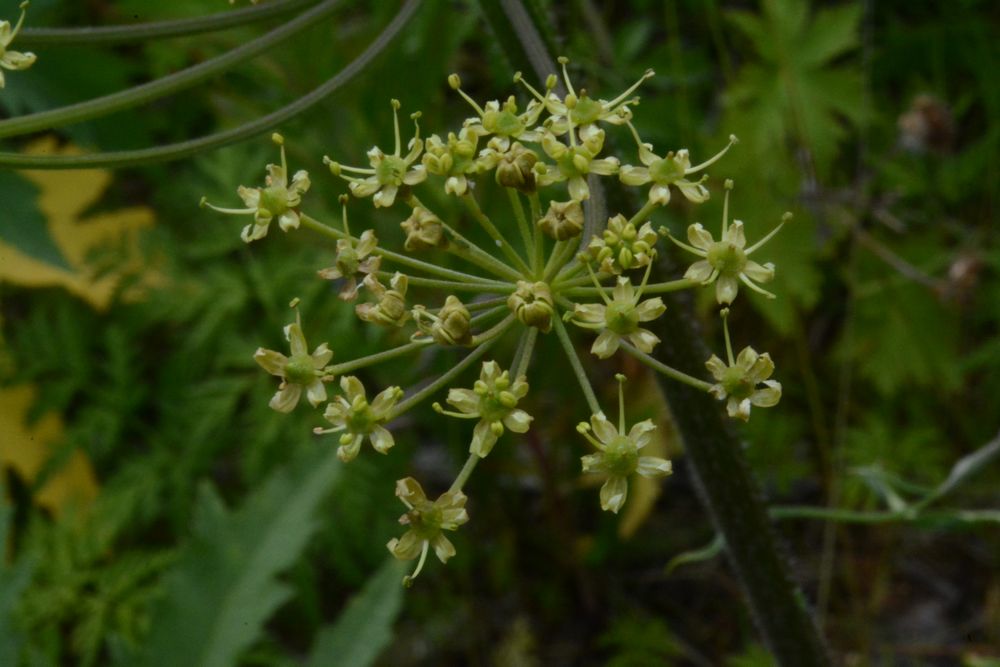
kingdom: Plantae
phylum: Tracheophyta
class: Magnoliopsida
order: Apiales
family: Apiaceae
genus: Heracleum
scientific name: Heracleum sphondylium
